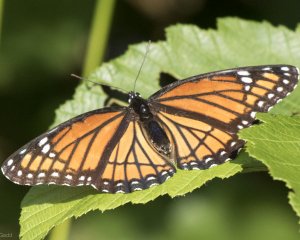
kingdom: Animalia
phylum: Arthropoda
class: Insecta
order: Lepidoptera
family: Nymphalidae
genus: Limenitis
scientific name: Limenitis archippus
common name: Viceroy
